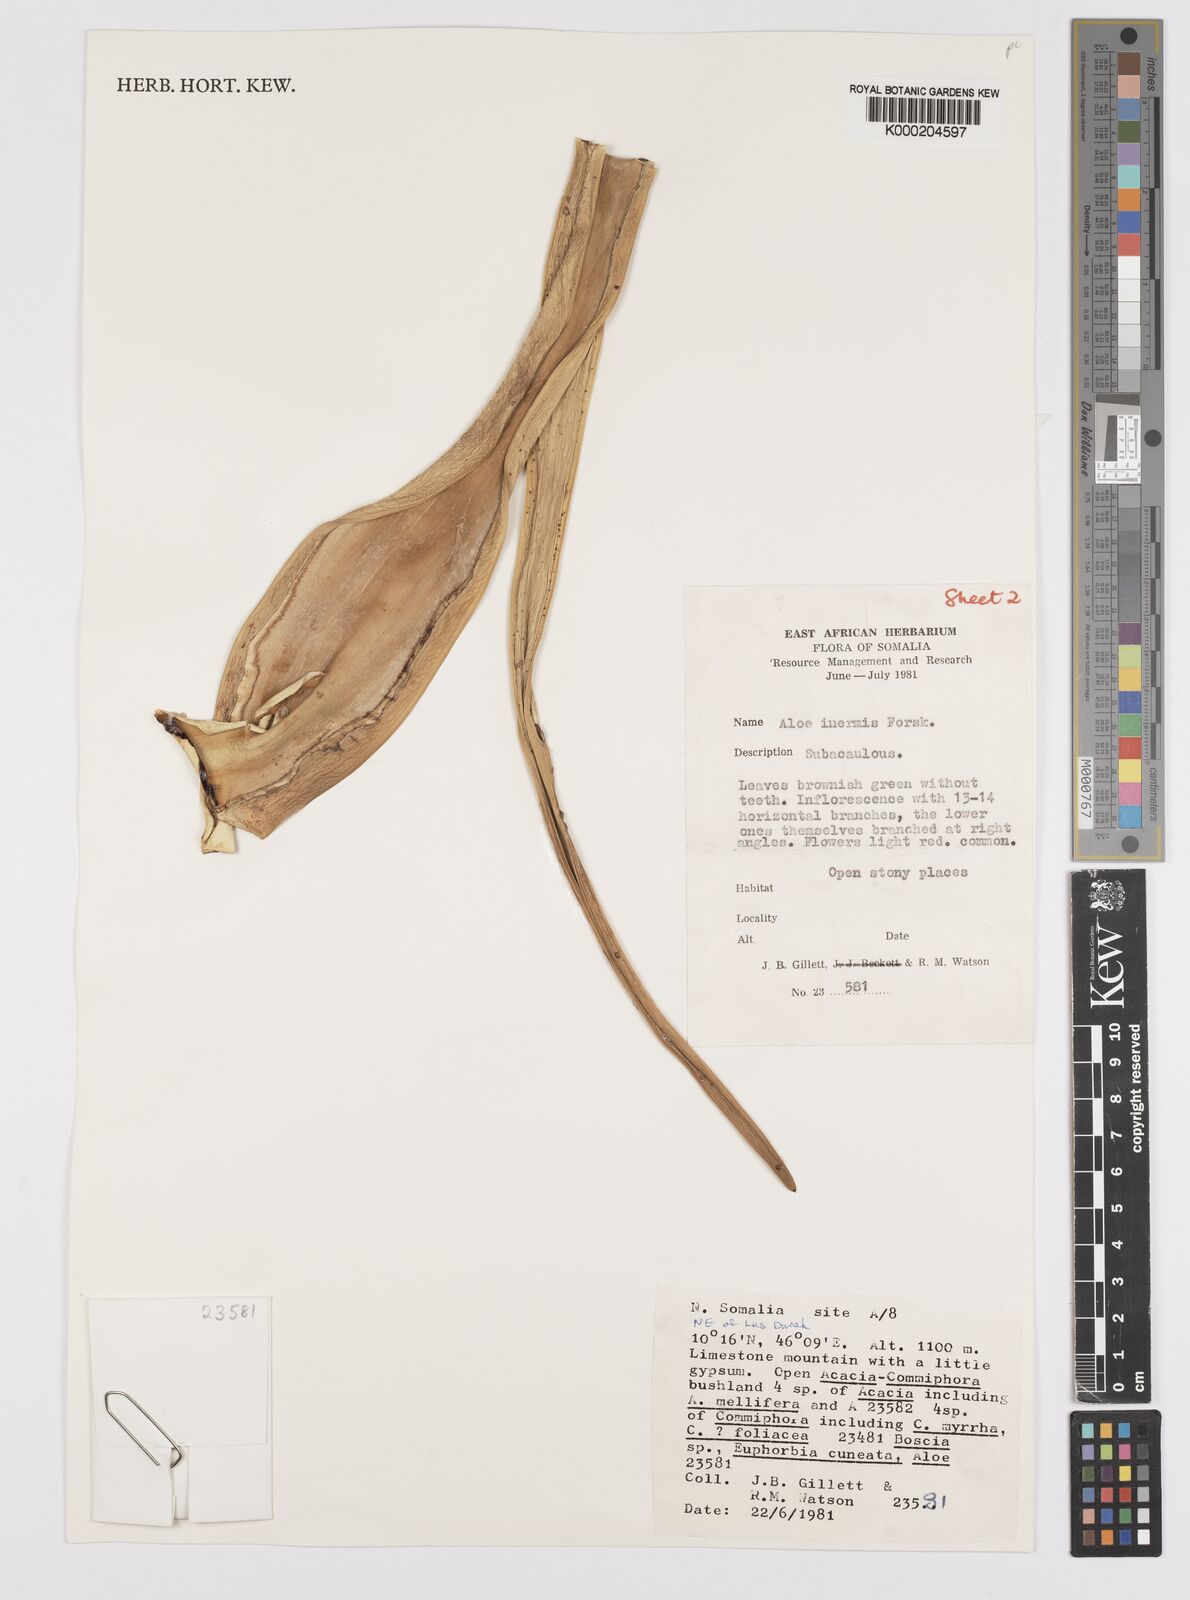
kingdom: Plantae
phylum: Tracheophyta
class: Liliopsida
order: Asparagales
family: Asphodelaceae
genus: Aloe
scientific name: Aloe luntii
